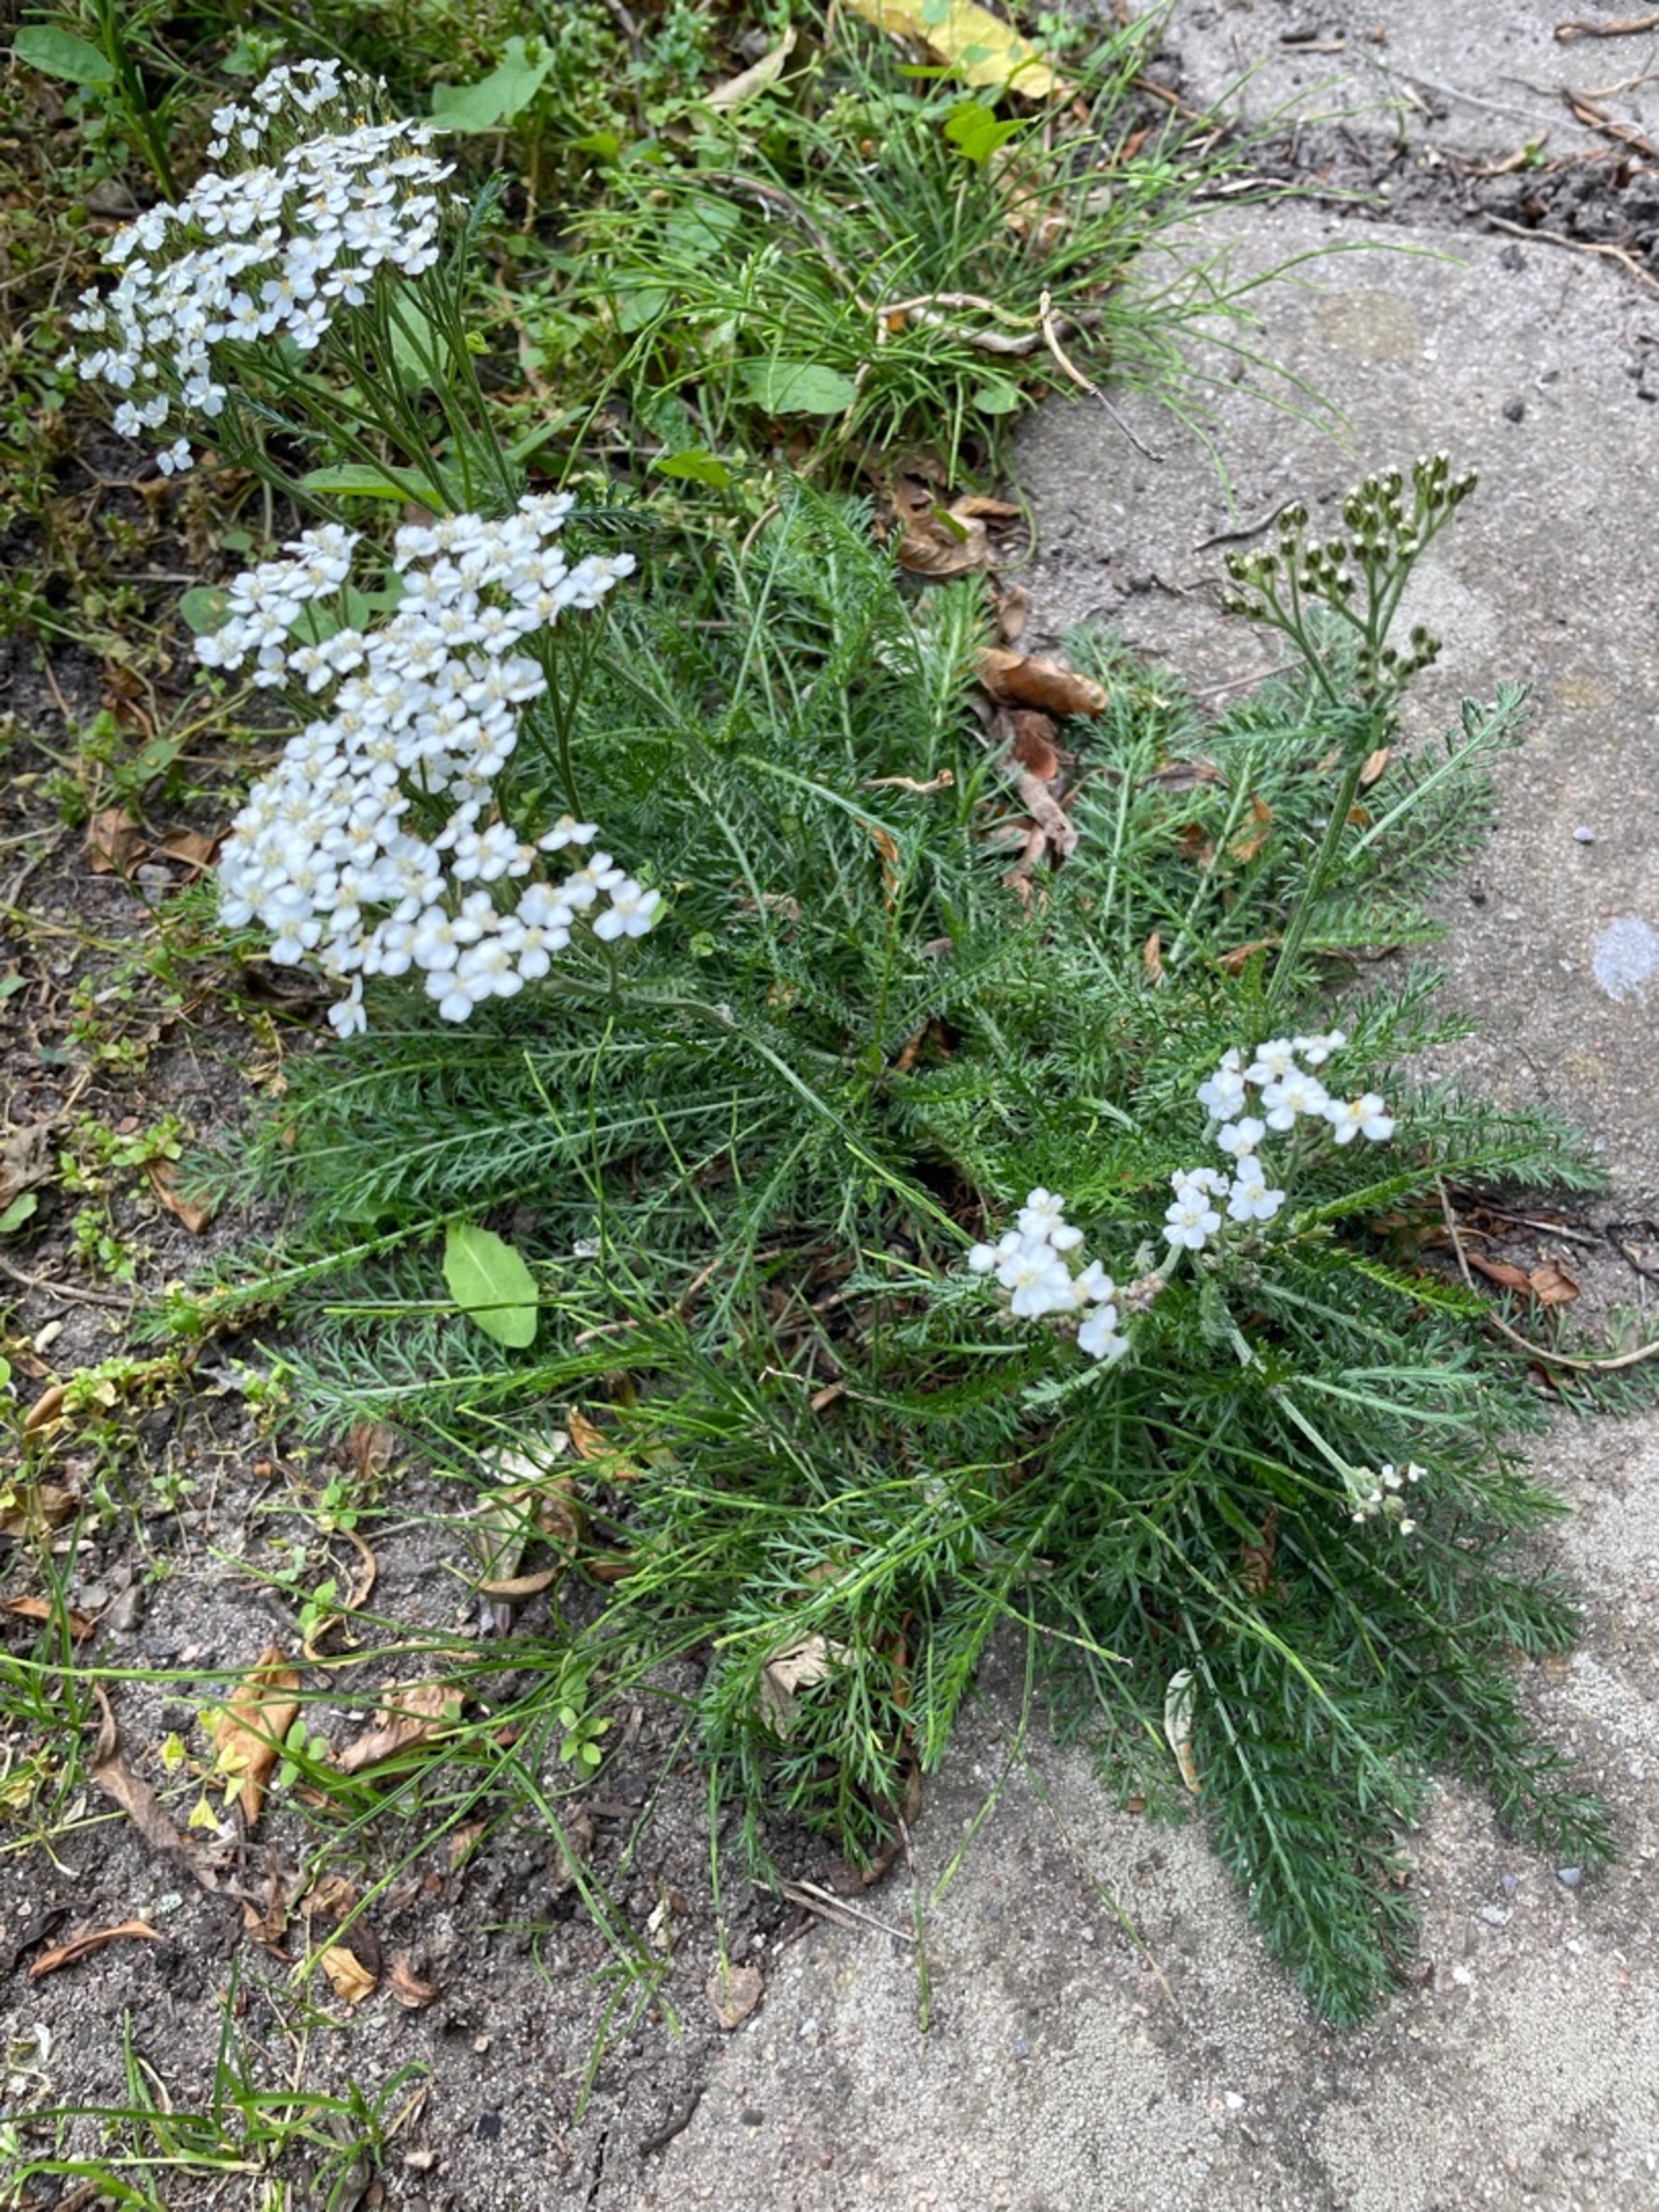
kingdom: Plantae
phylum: Tracheophyta
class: Magnoliopsida
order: Asterales
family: Asteraceae
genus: Achillea
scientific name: Achillea millefolium
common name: Almindelig røllike
